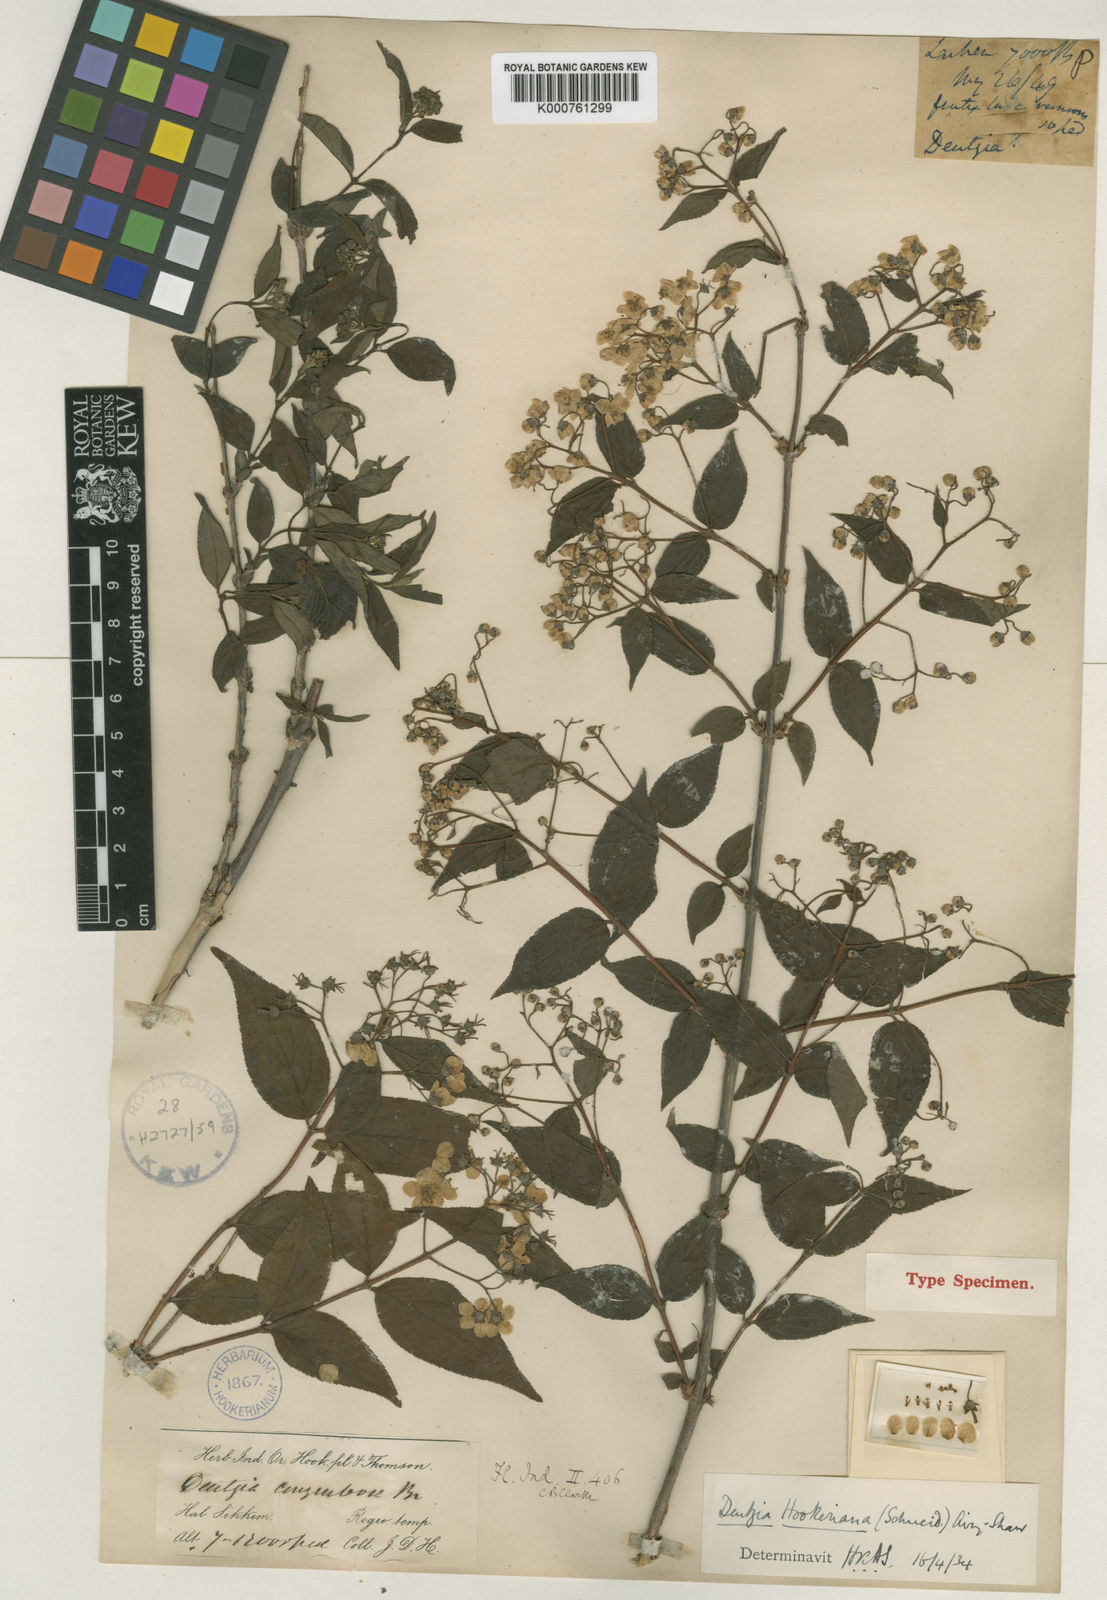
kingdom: Plantae
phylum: Tracheophyta
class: Magnoliopsida
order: Cornales
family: Hydrangeaceae
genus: Deutzia
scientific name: Deutzia hookeriana
